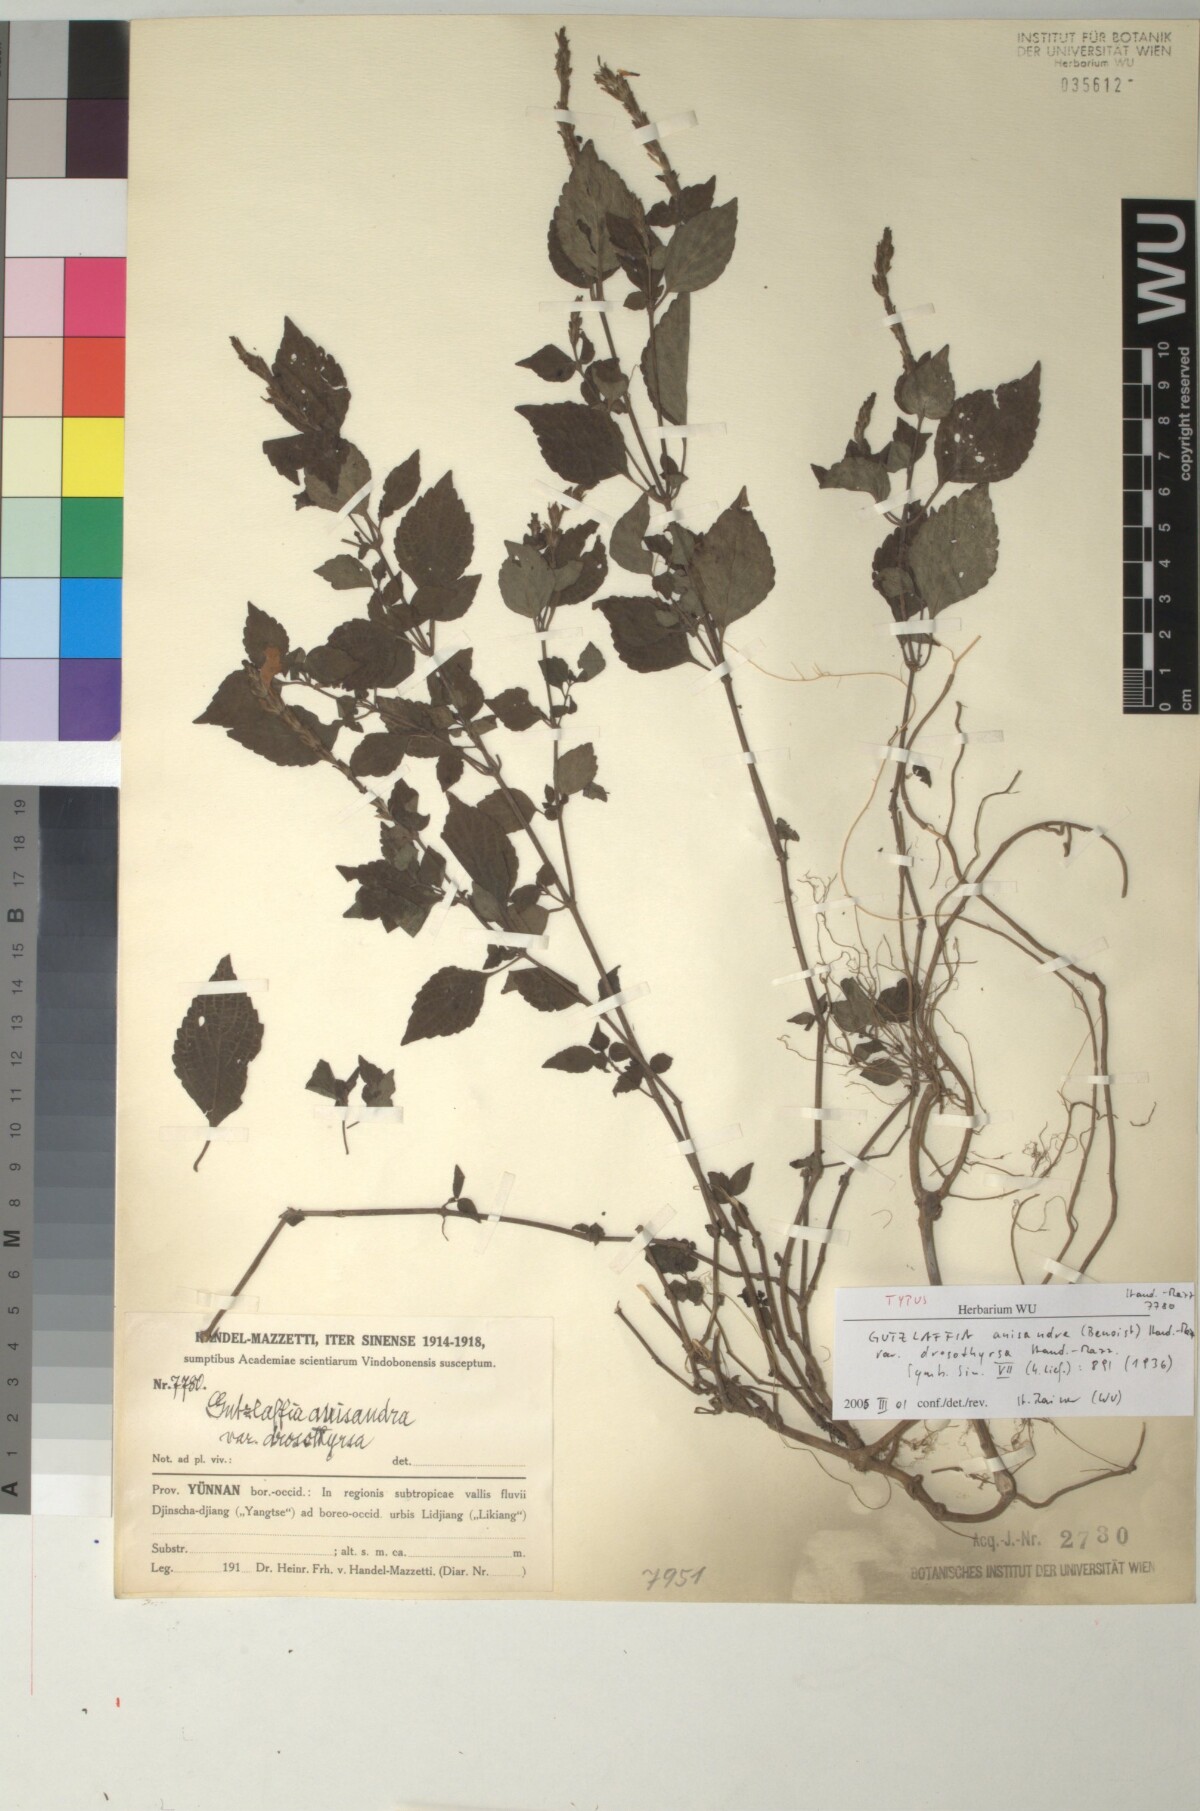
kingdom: Plantae
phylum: Tracheophyta
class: Magnoliopsida
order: Lamiales
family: Acanthaceae
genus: Strobilanthes
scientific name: Strobilanthes henryi
